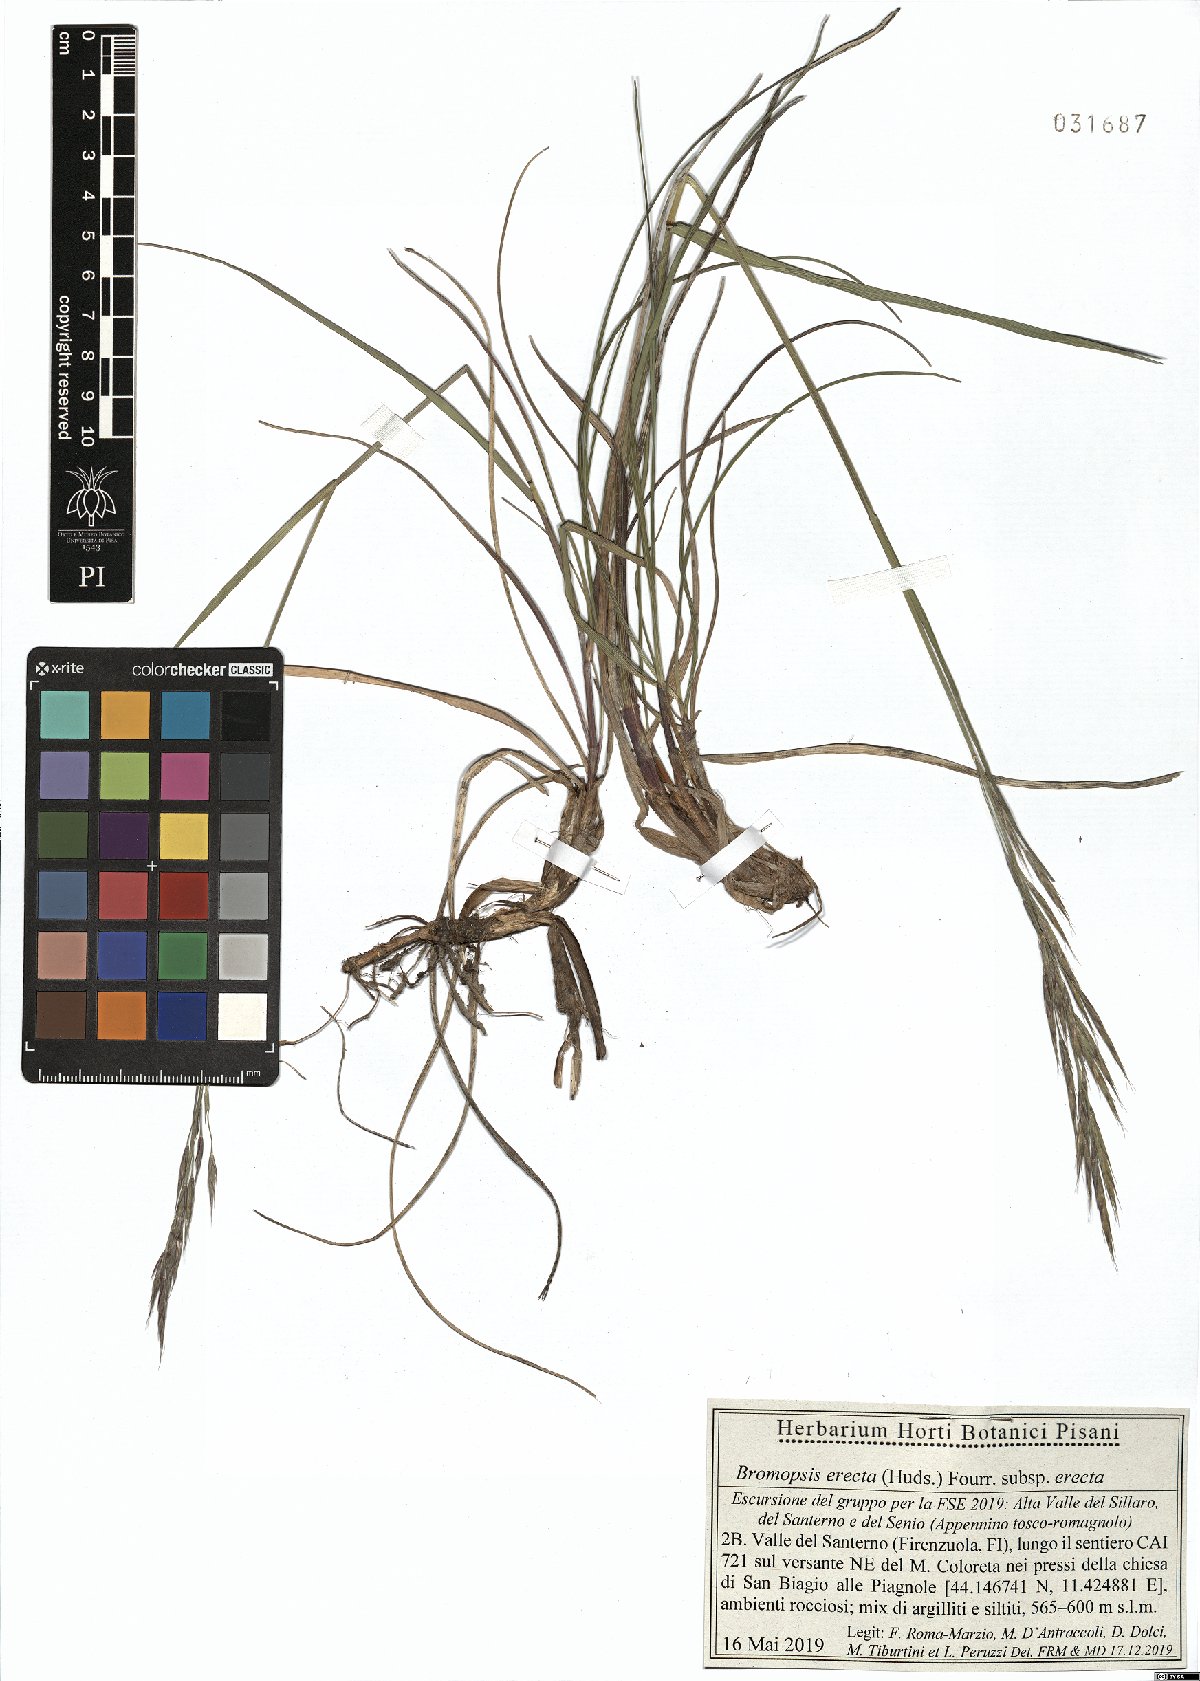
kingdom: Plantae
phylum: Tracheophyta
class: Liliopsida
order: Poales
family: Poaceae
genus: Bromus
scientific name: Bromus erectus
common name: Erect brome
